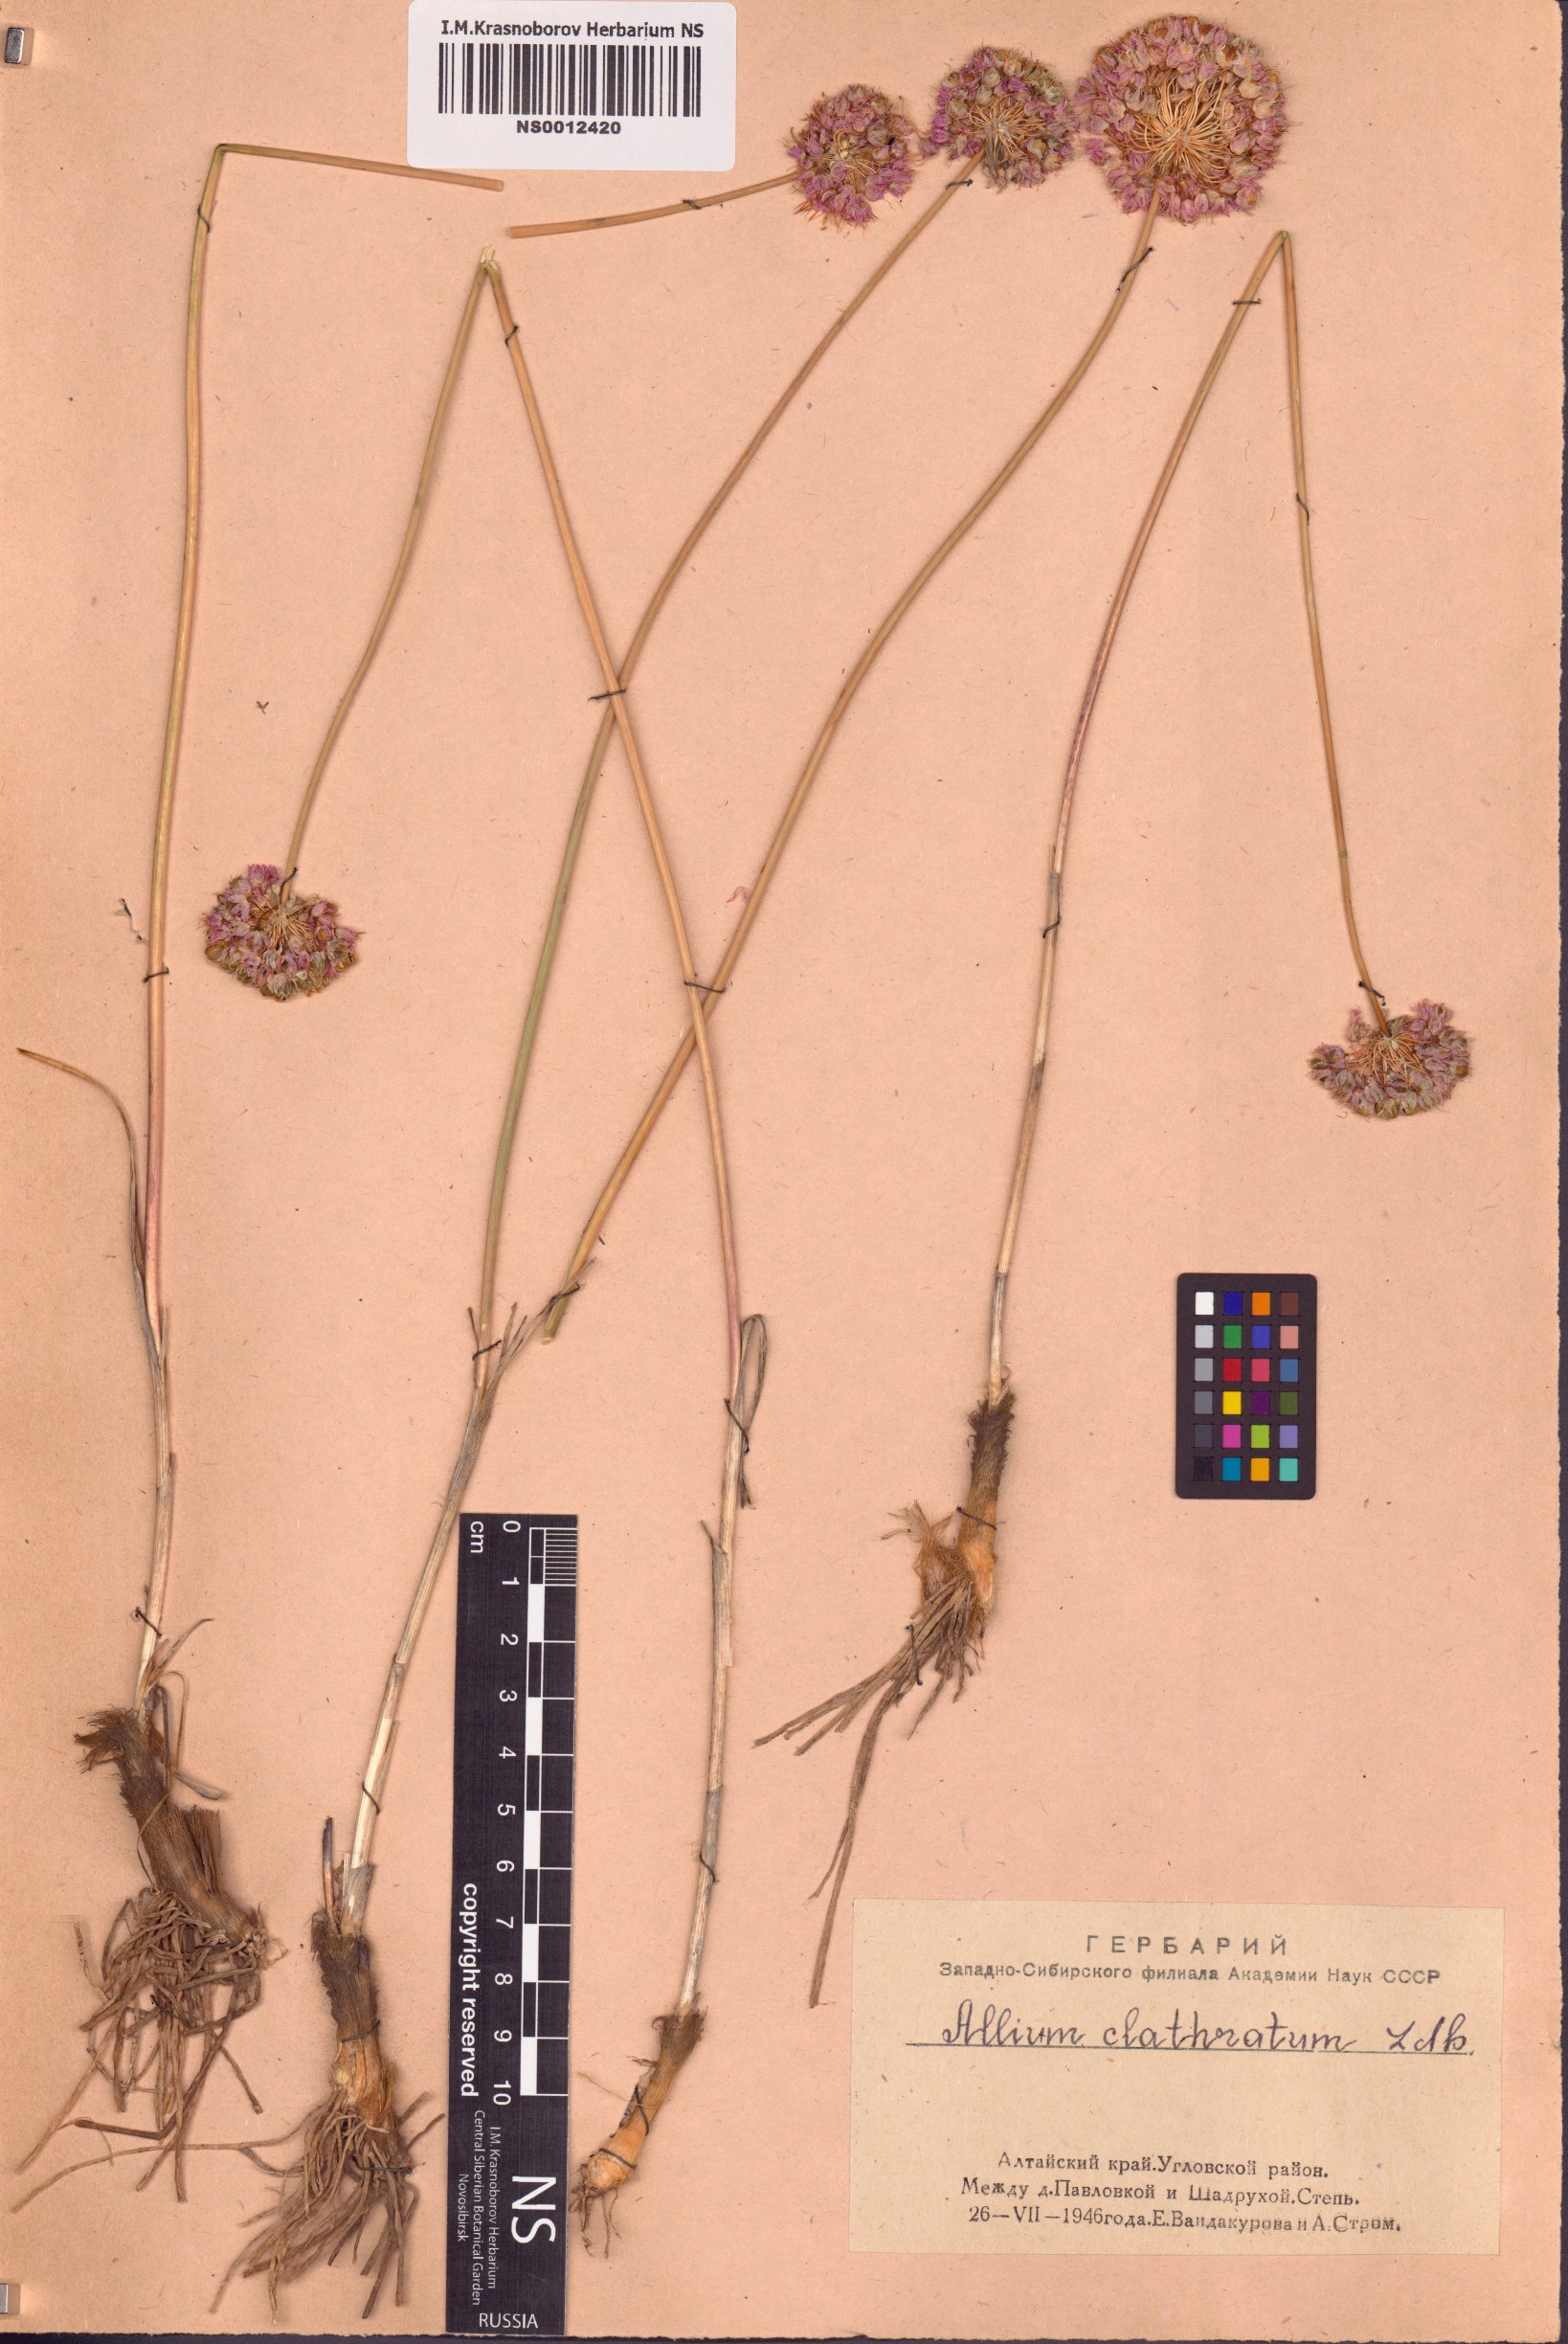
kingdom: Plantae
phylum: Tracheophyta
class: Liliopsida
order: Asparagales
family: Amaryllidaceae
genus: Allium
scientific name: Allium clathratum
